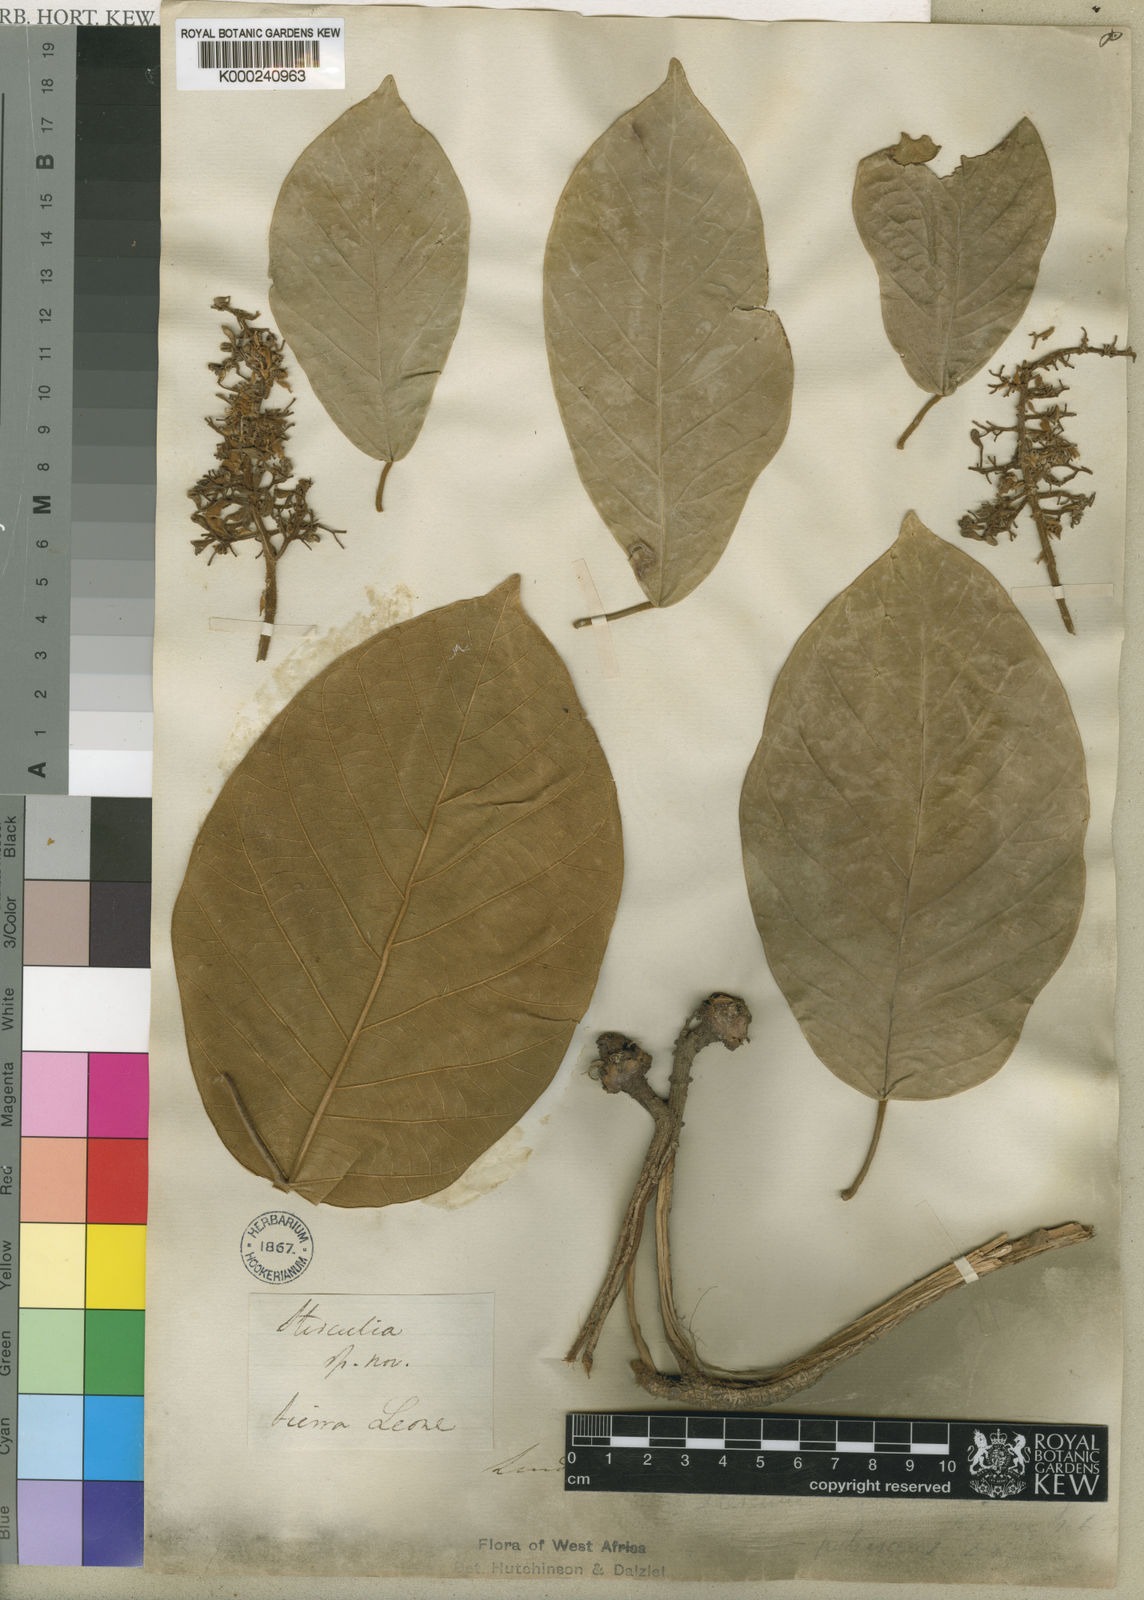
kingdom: Plantae
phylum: Tracheophyta
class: Magnoliopsida
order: Malvales
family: Malvaceae
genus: Sterculia
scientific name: Sterculia tragacantha
